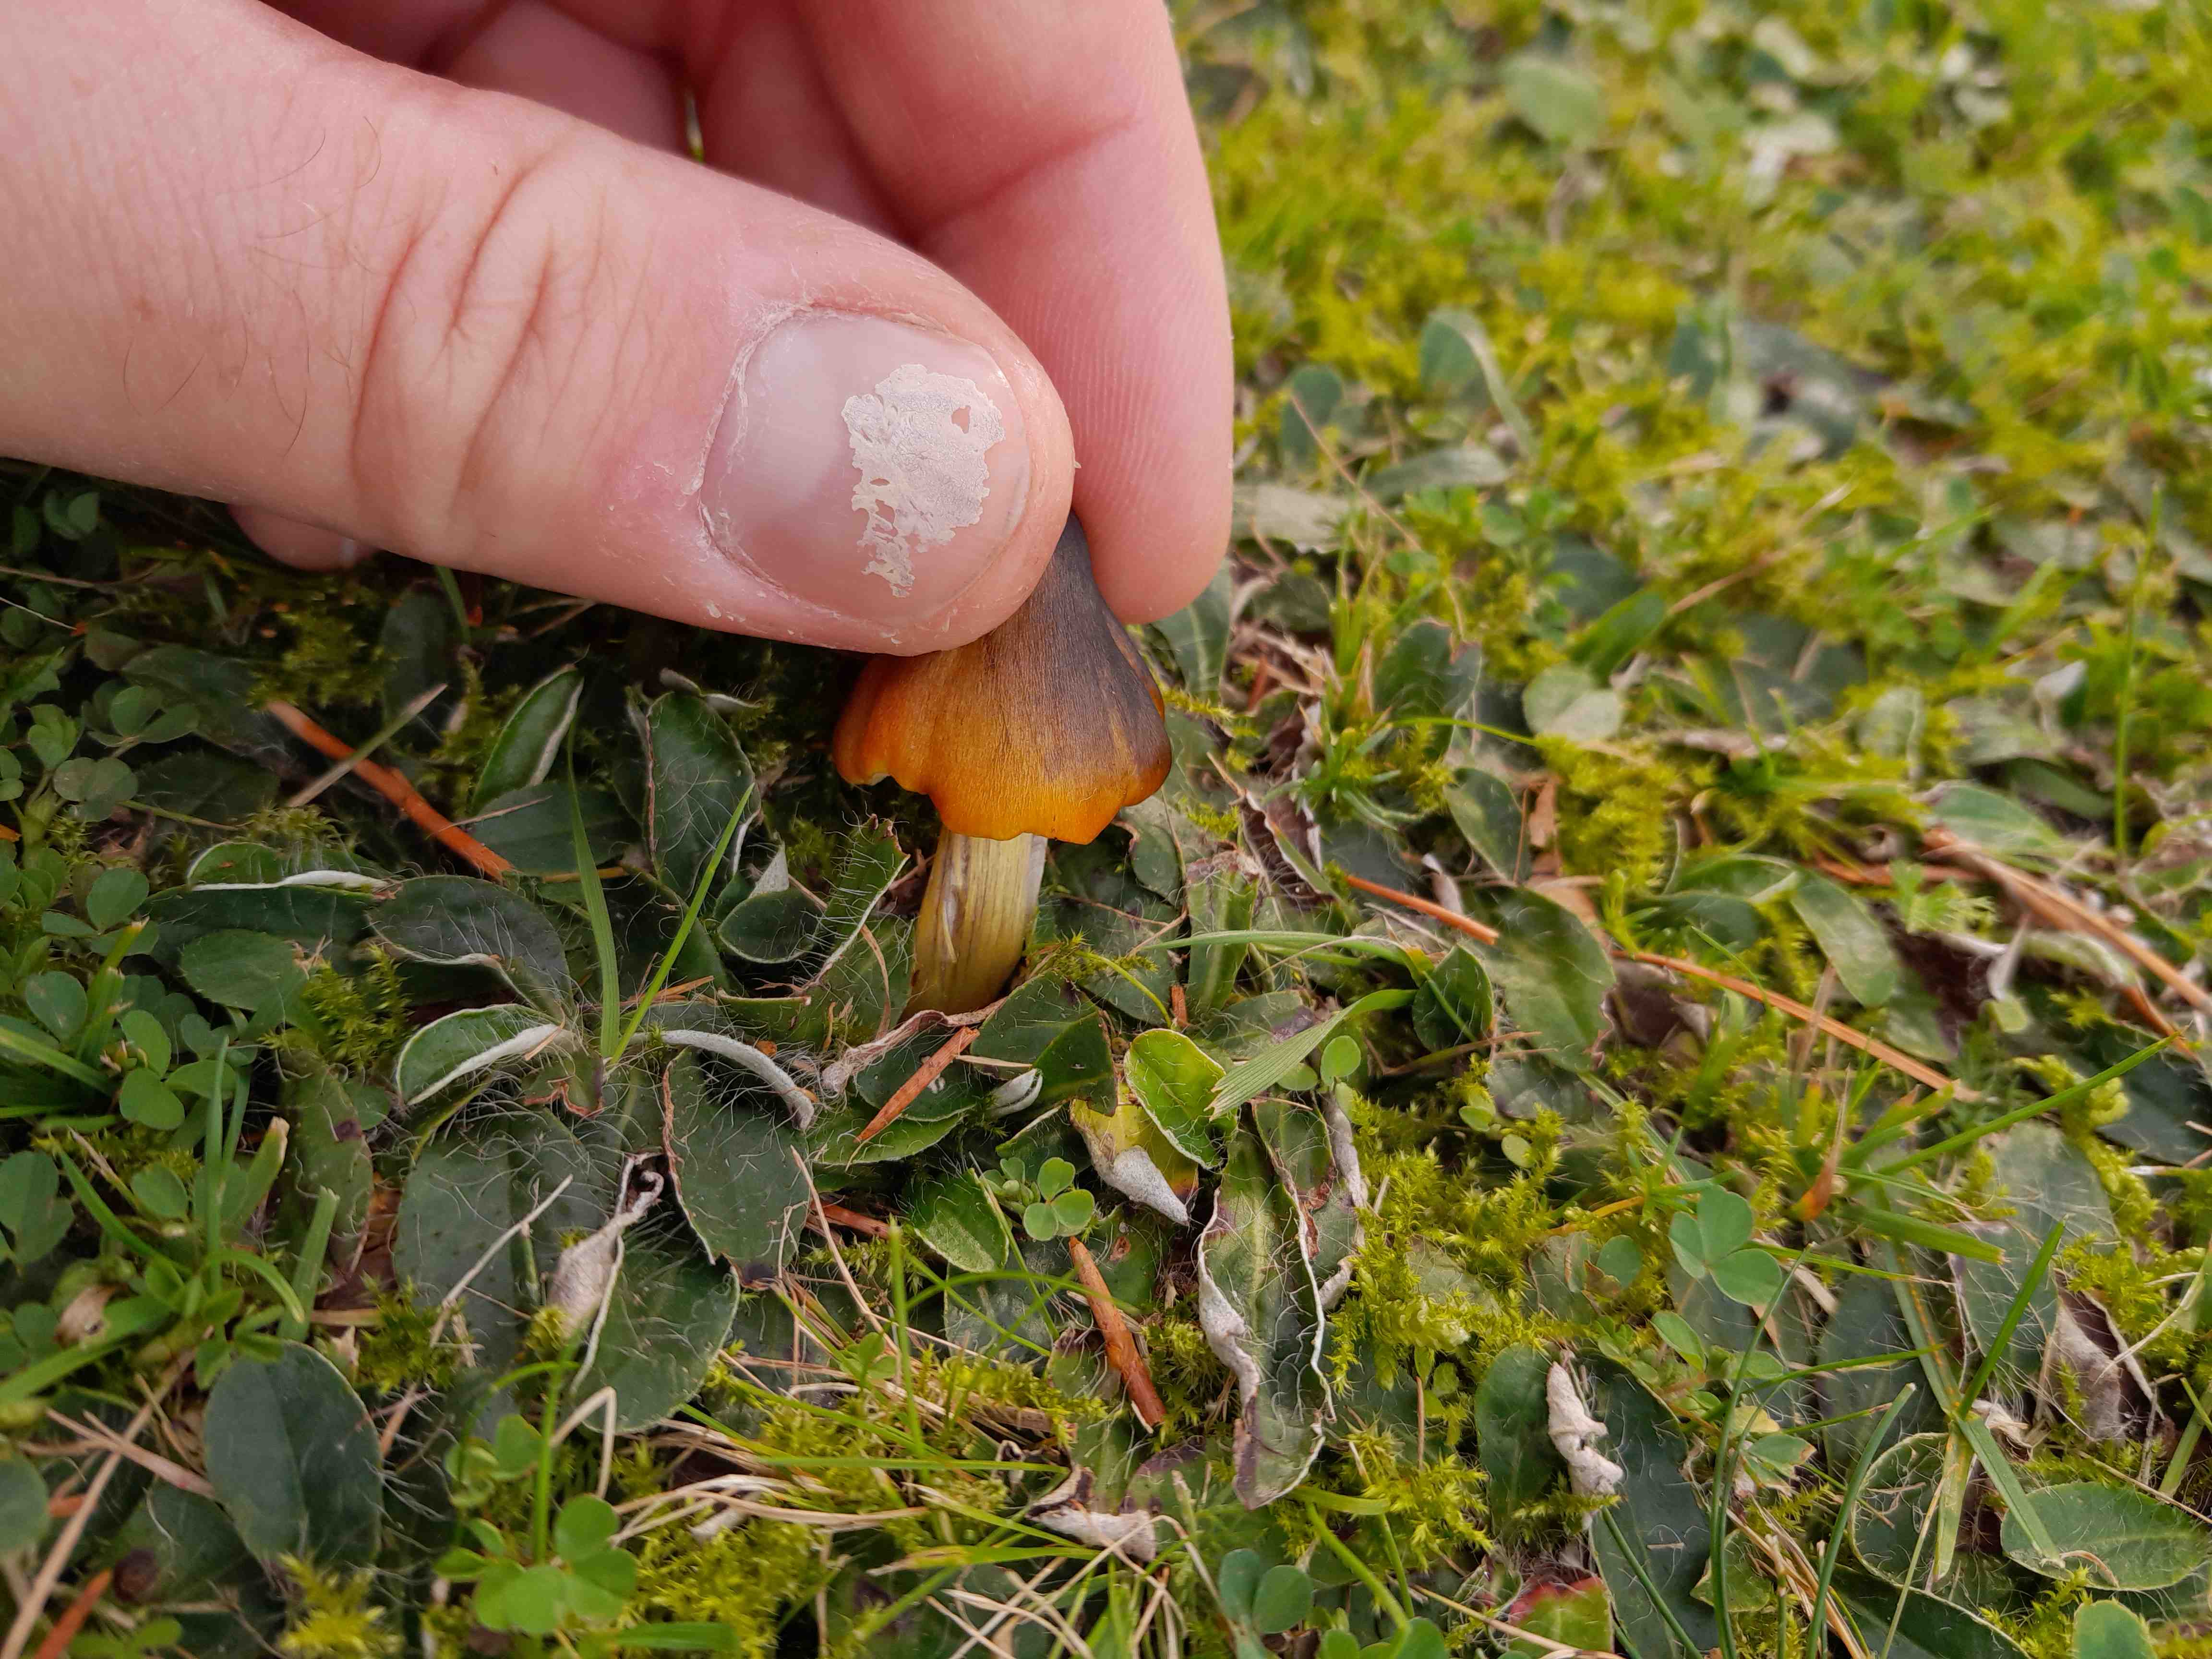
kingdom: Fungi
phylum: Basidiomycota
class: Agaricomycetes
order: Agaricales
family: Hygrophoraceae
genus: Hygrocybe
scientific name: Hygrocybe conica
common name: kegle-vokshat
